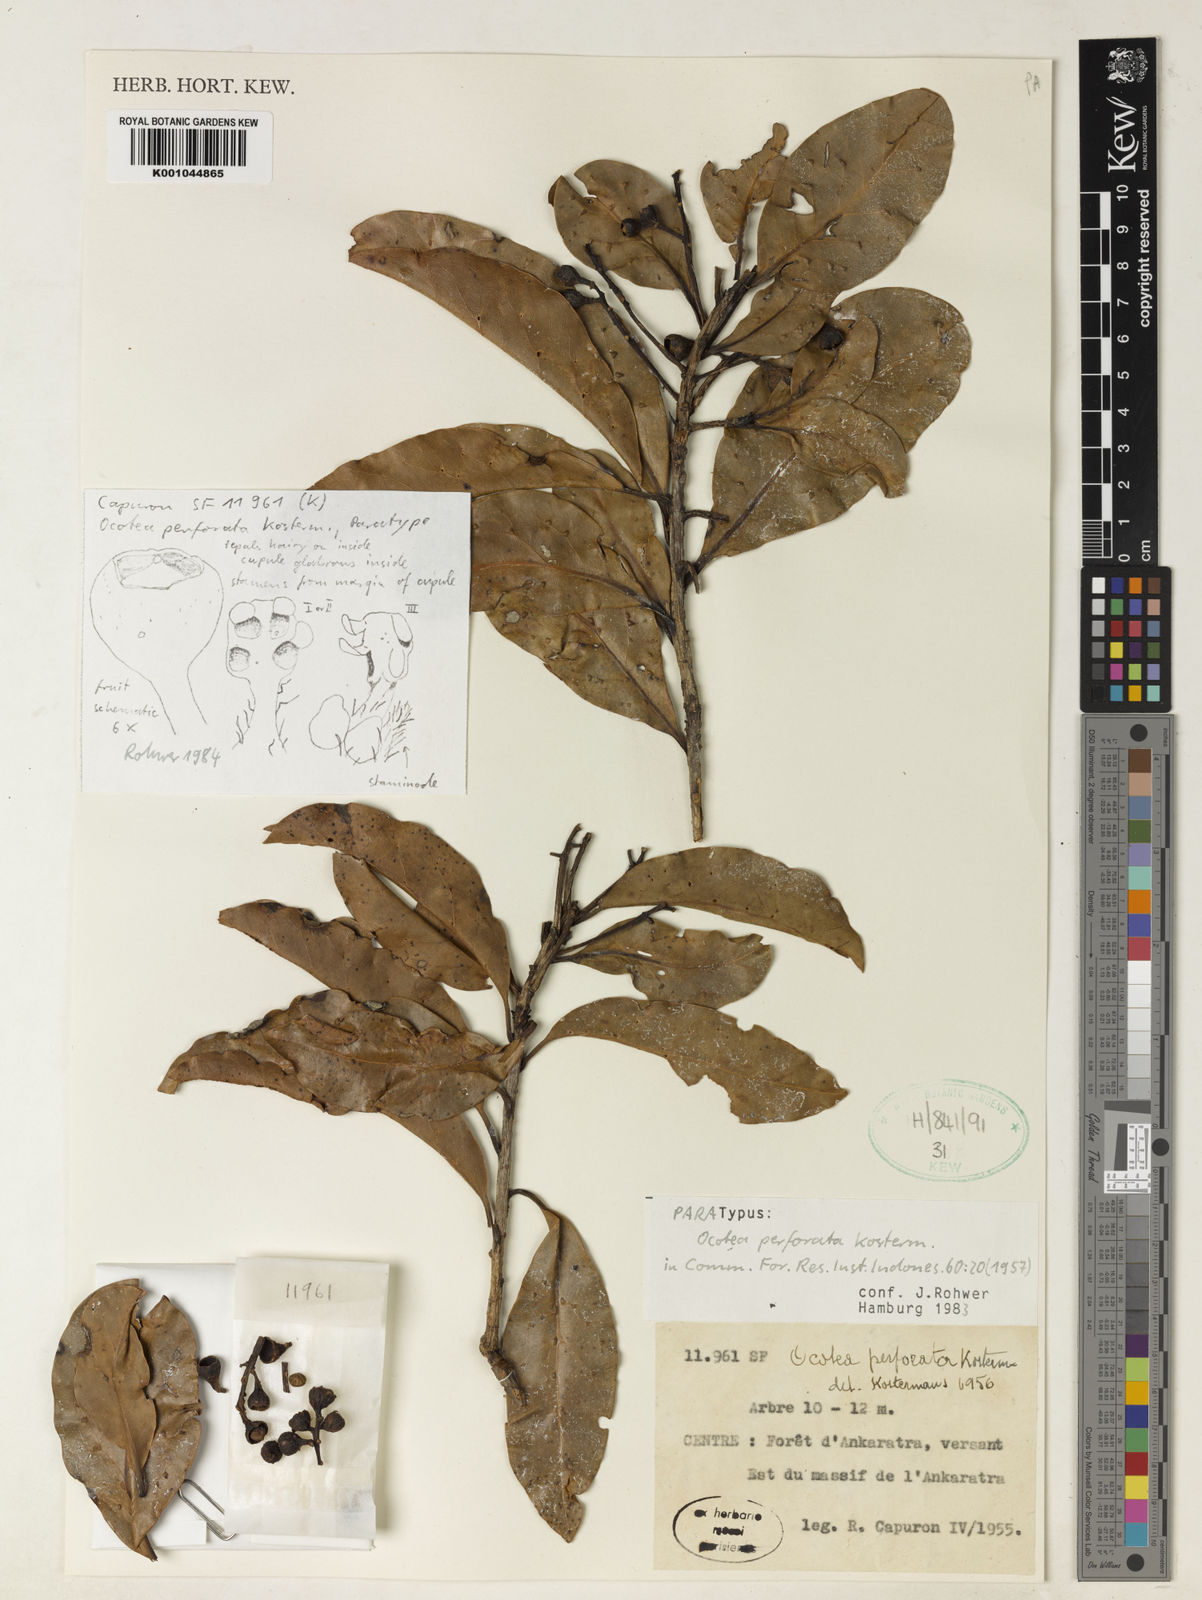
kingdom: Plantae
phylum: Tracheophyta
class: Magnoliopsida
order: Laurales
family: Lauraceae
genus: Ocotea
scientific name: Ocotea perforata
